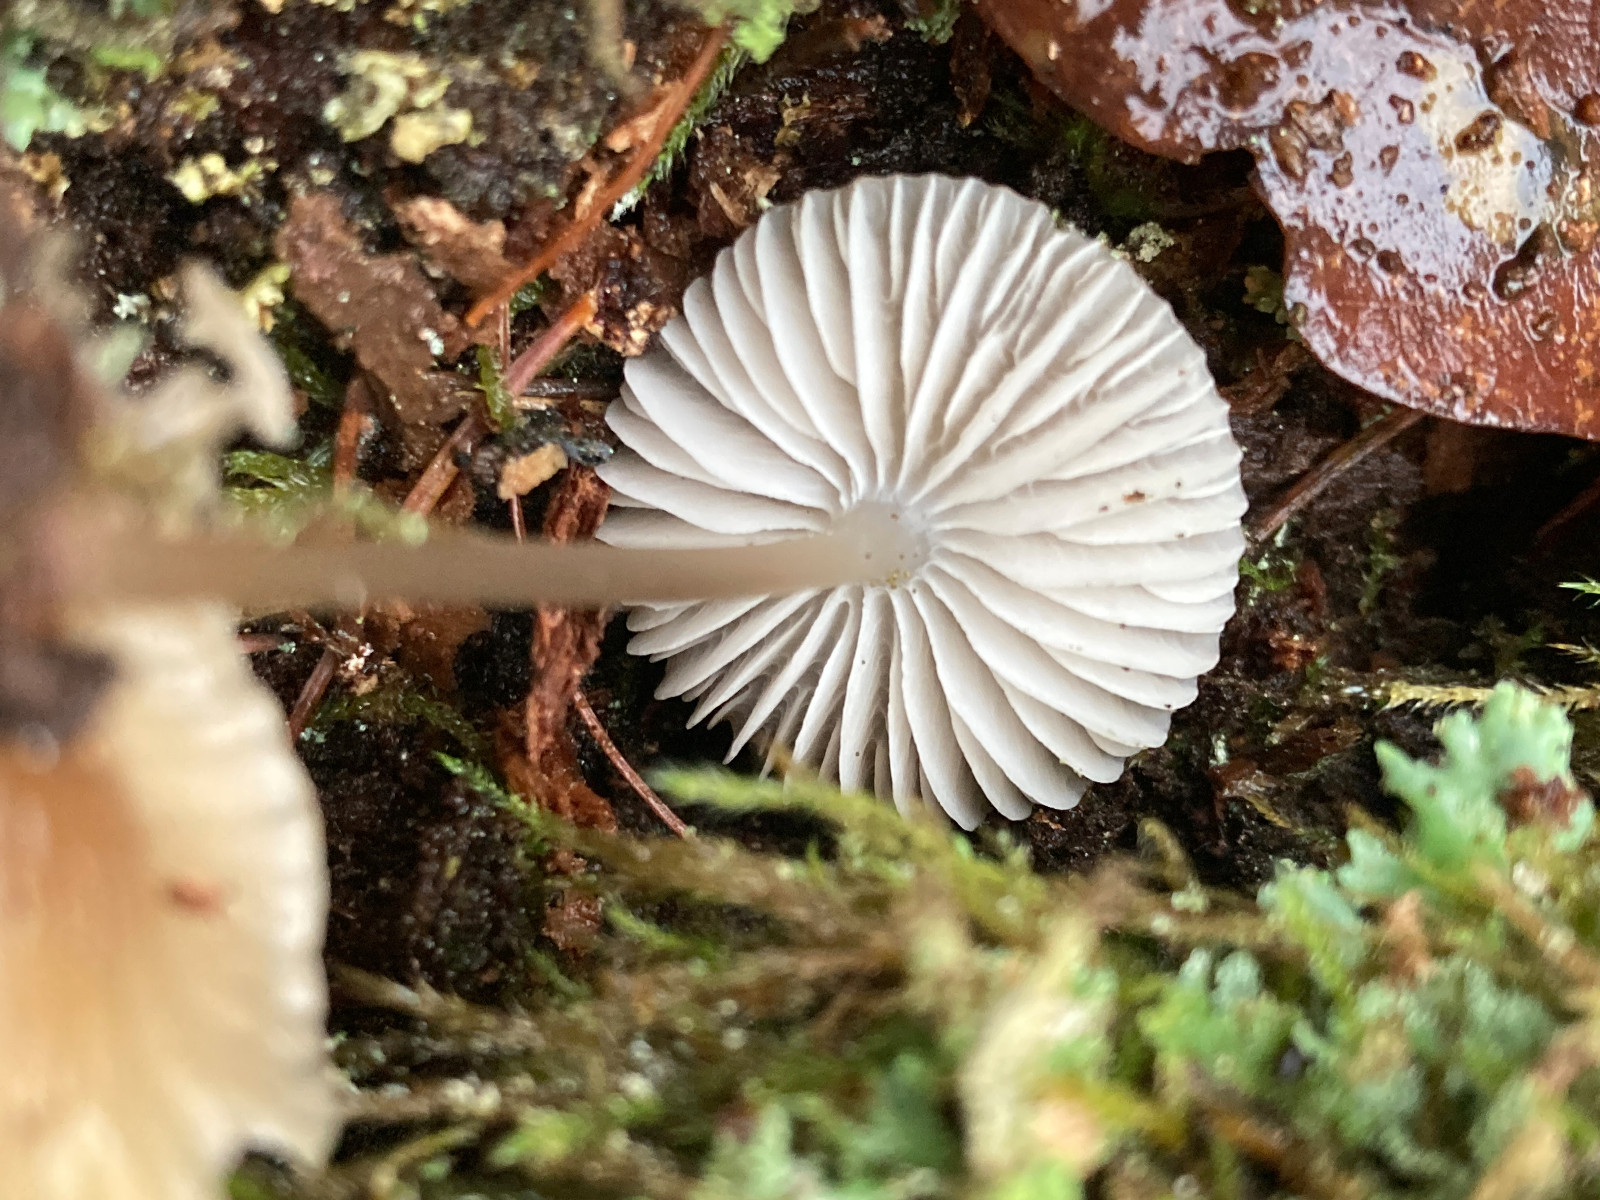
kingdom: Fungi
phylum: Basidiomycota
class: Agaricomycetes
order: Agaricales
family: Mycenaceae
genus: Mycena
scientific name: Mycena
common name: huesvamp
